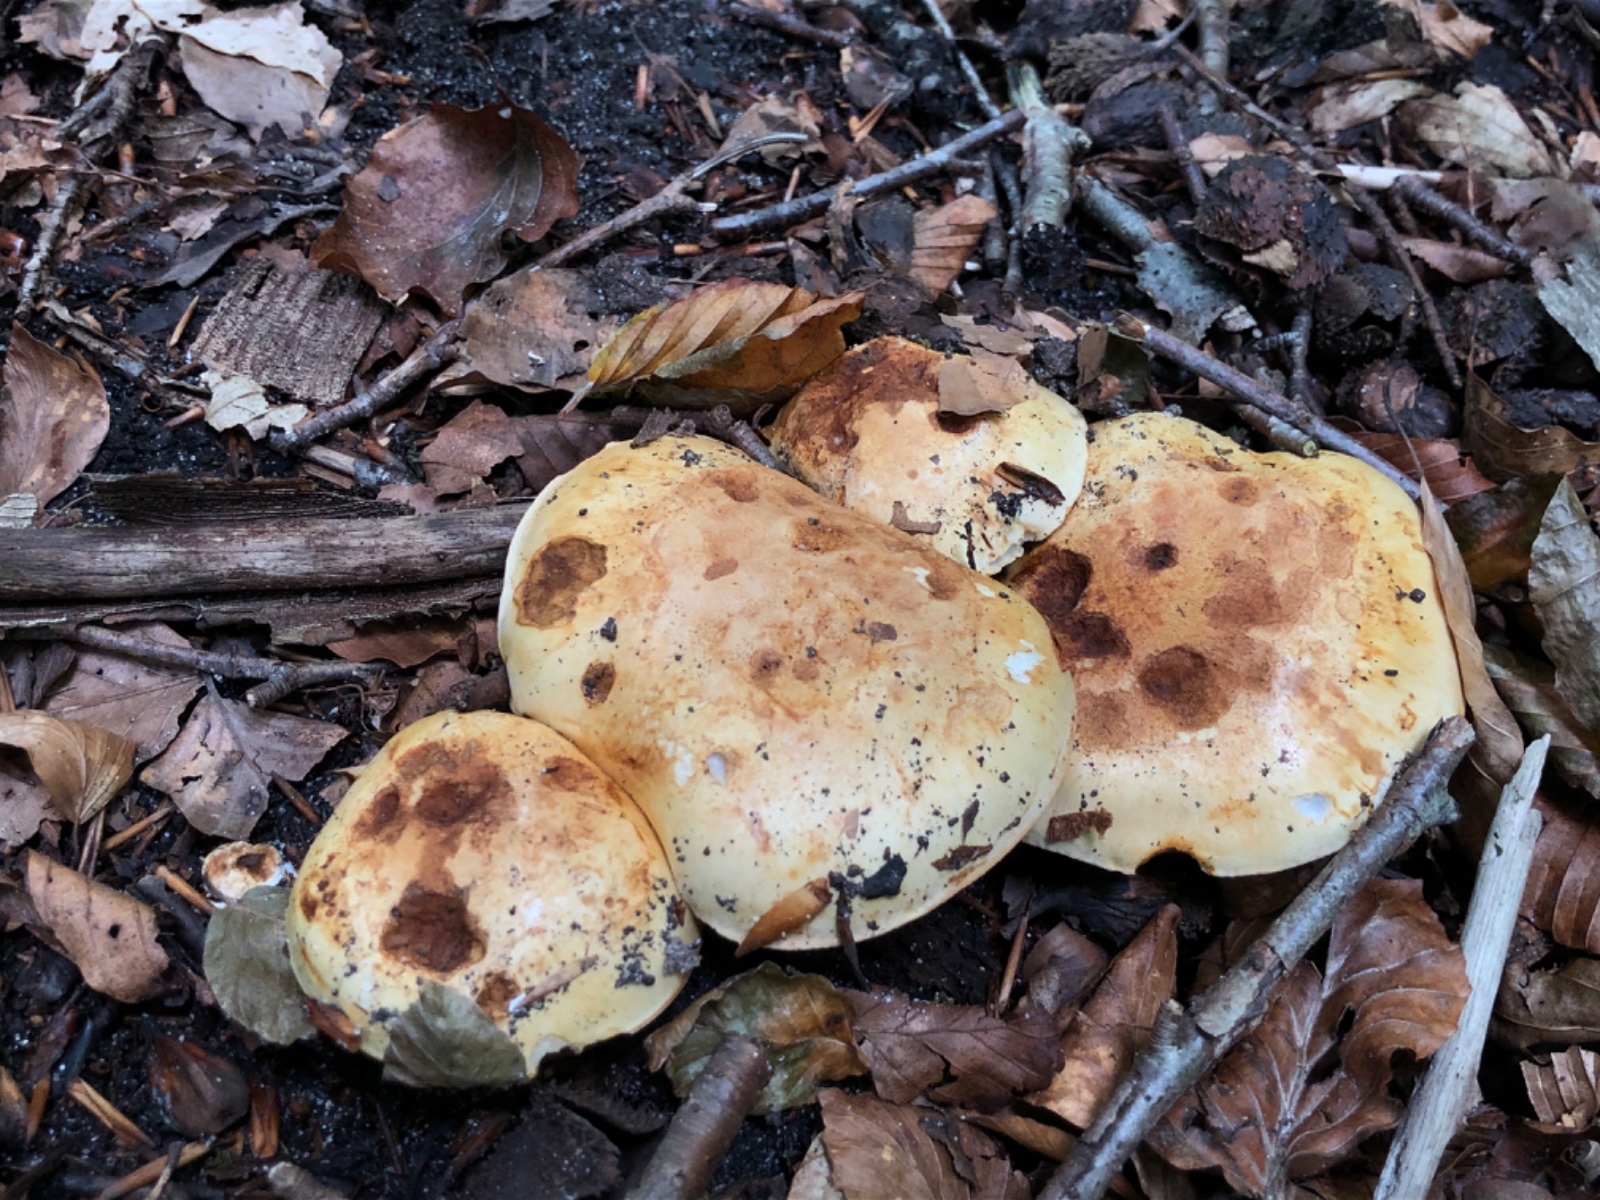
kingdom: Fungi
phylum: Basidiomycota
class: Agaricomycetes
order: Agaricales
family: Cortinariaceae
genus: Calonarius
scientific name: Calonarius osmophorus
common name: duft-slørhat
